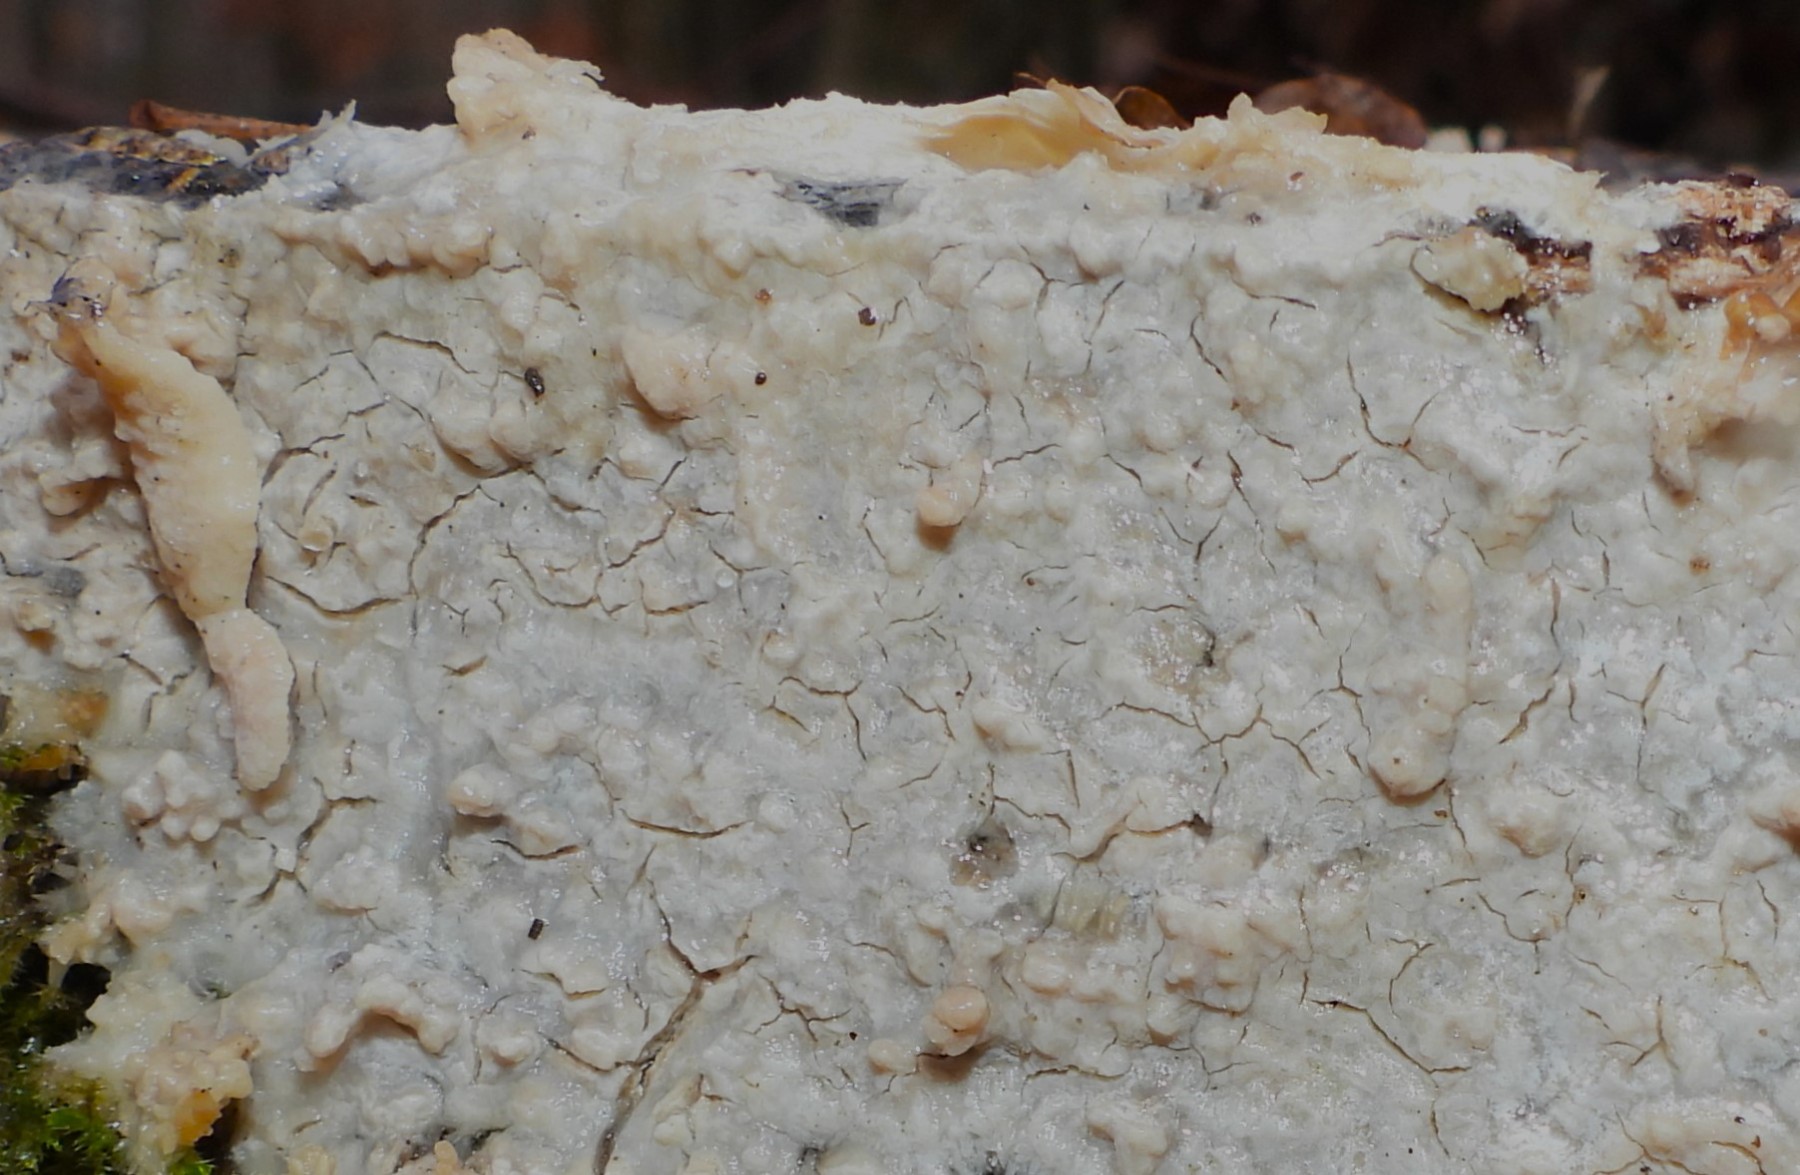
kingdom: Fungi
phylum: Basidiomycota
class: Agaricomycetes
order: Corticiales
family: Corticiaceae
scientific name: Corticiaceae
